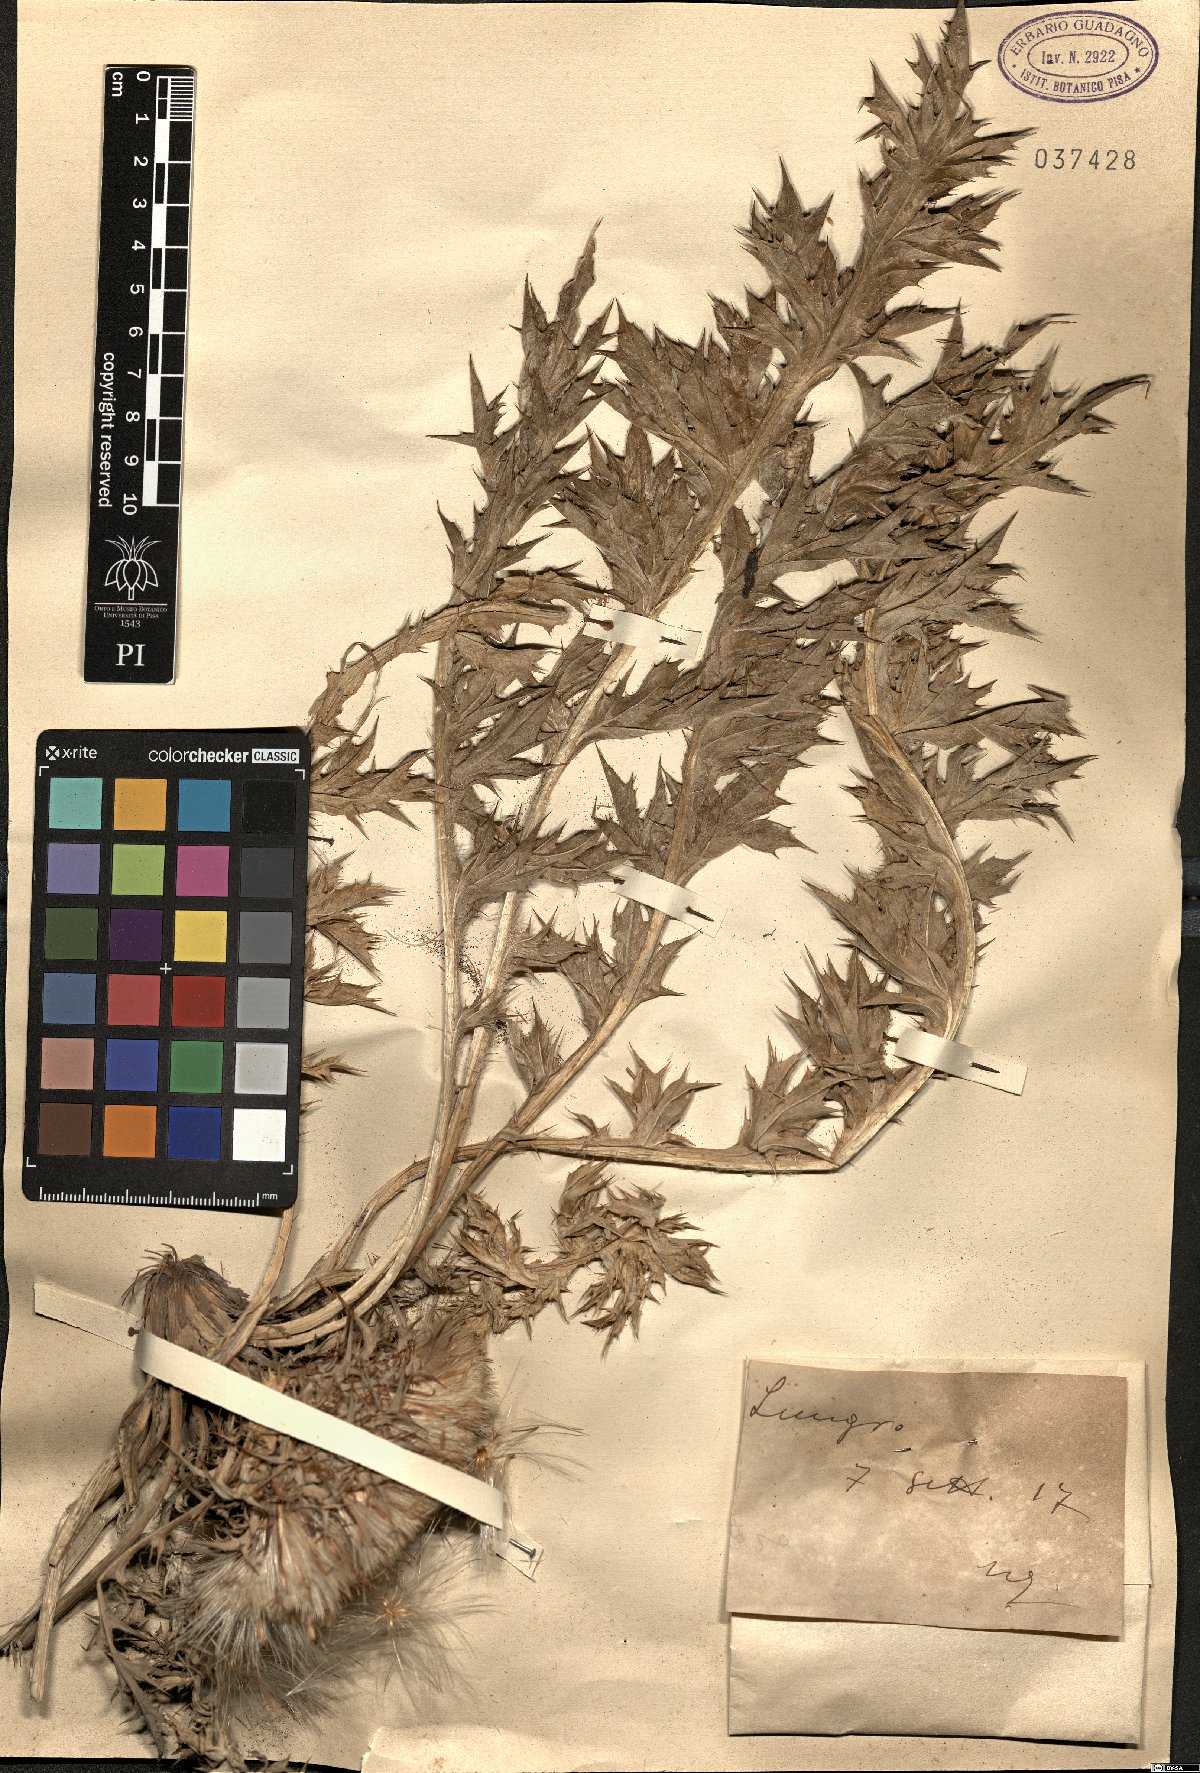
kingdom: Plantae
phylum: Tracheophyta
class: Magnoliopsida
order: Asterales
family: Asteraceae
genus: Carlina
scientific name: Carlina
